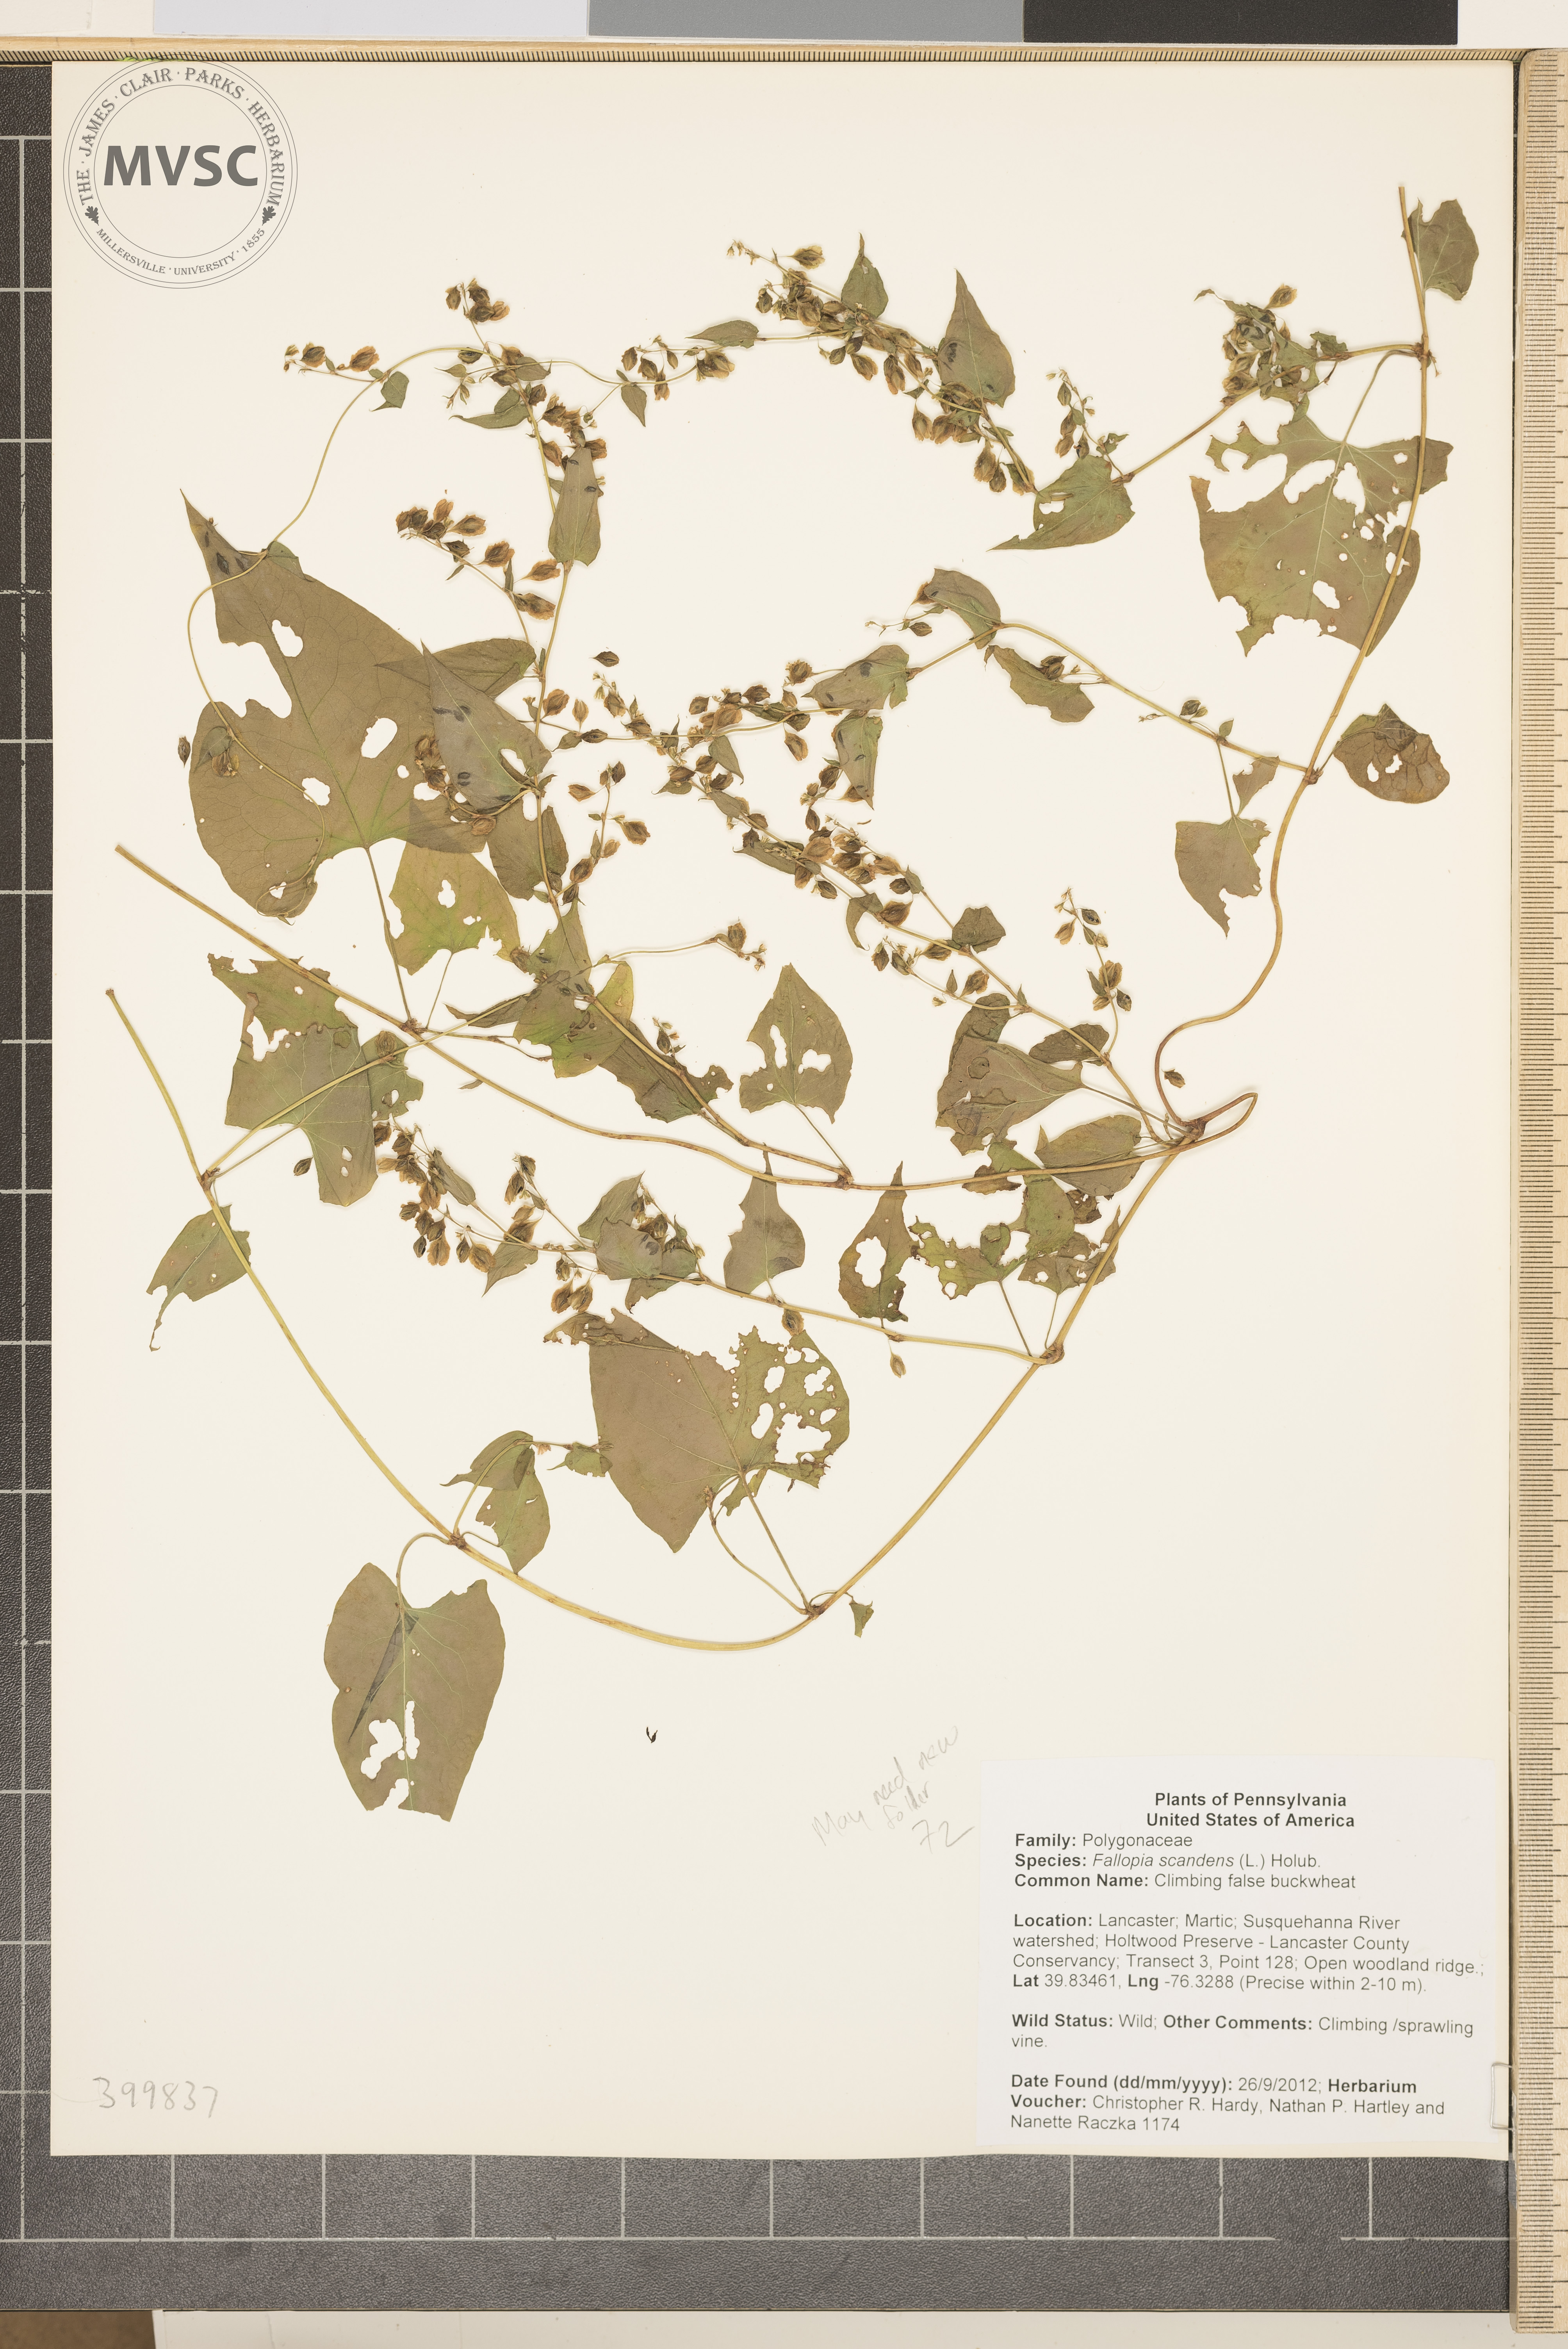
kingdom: Plantae
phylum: Tracheophyta
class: Magnoliopsida
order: Caryophyllales
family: Polygonaceae
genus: Fallopia
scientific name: Fallopia scandens
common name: Climbing false buckwheat
